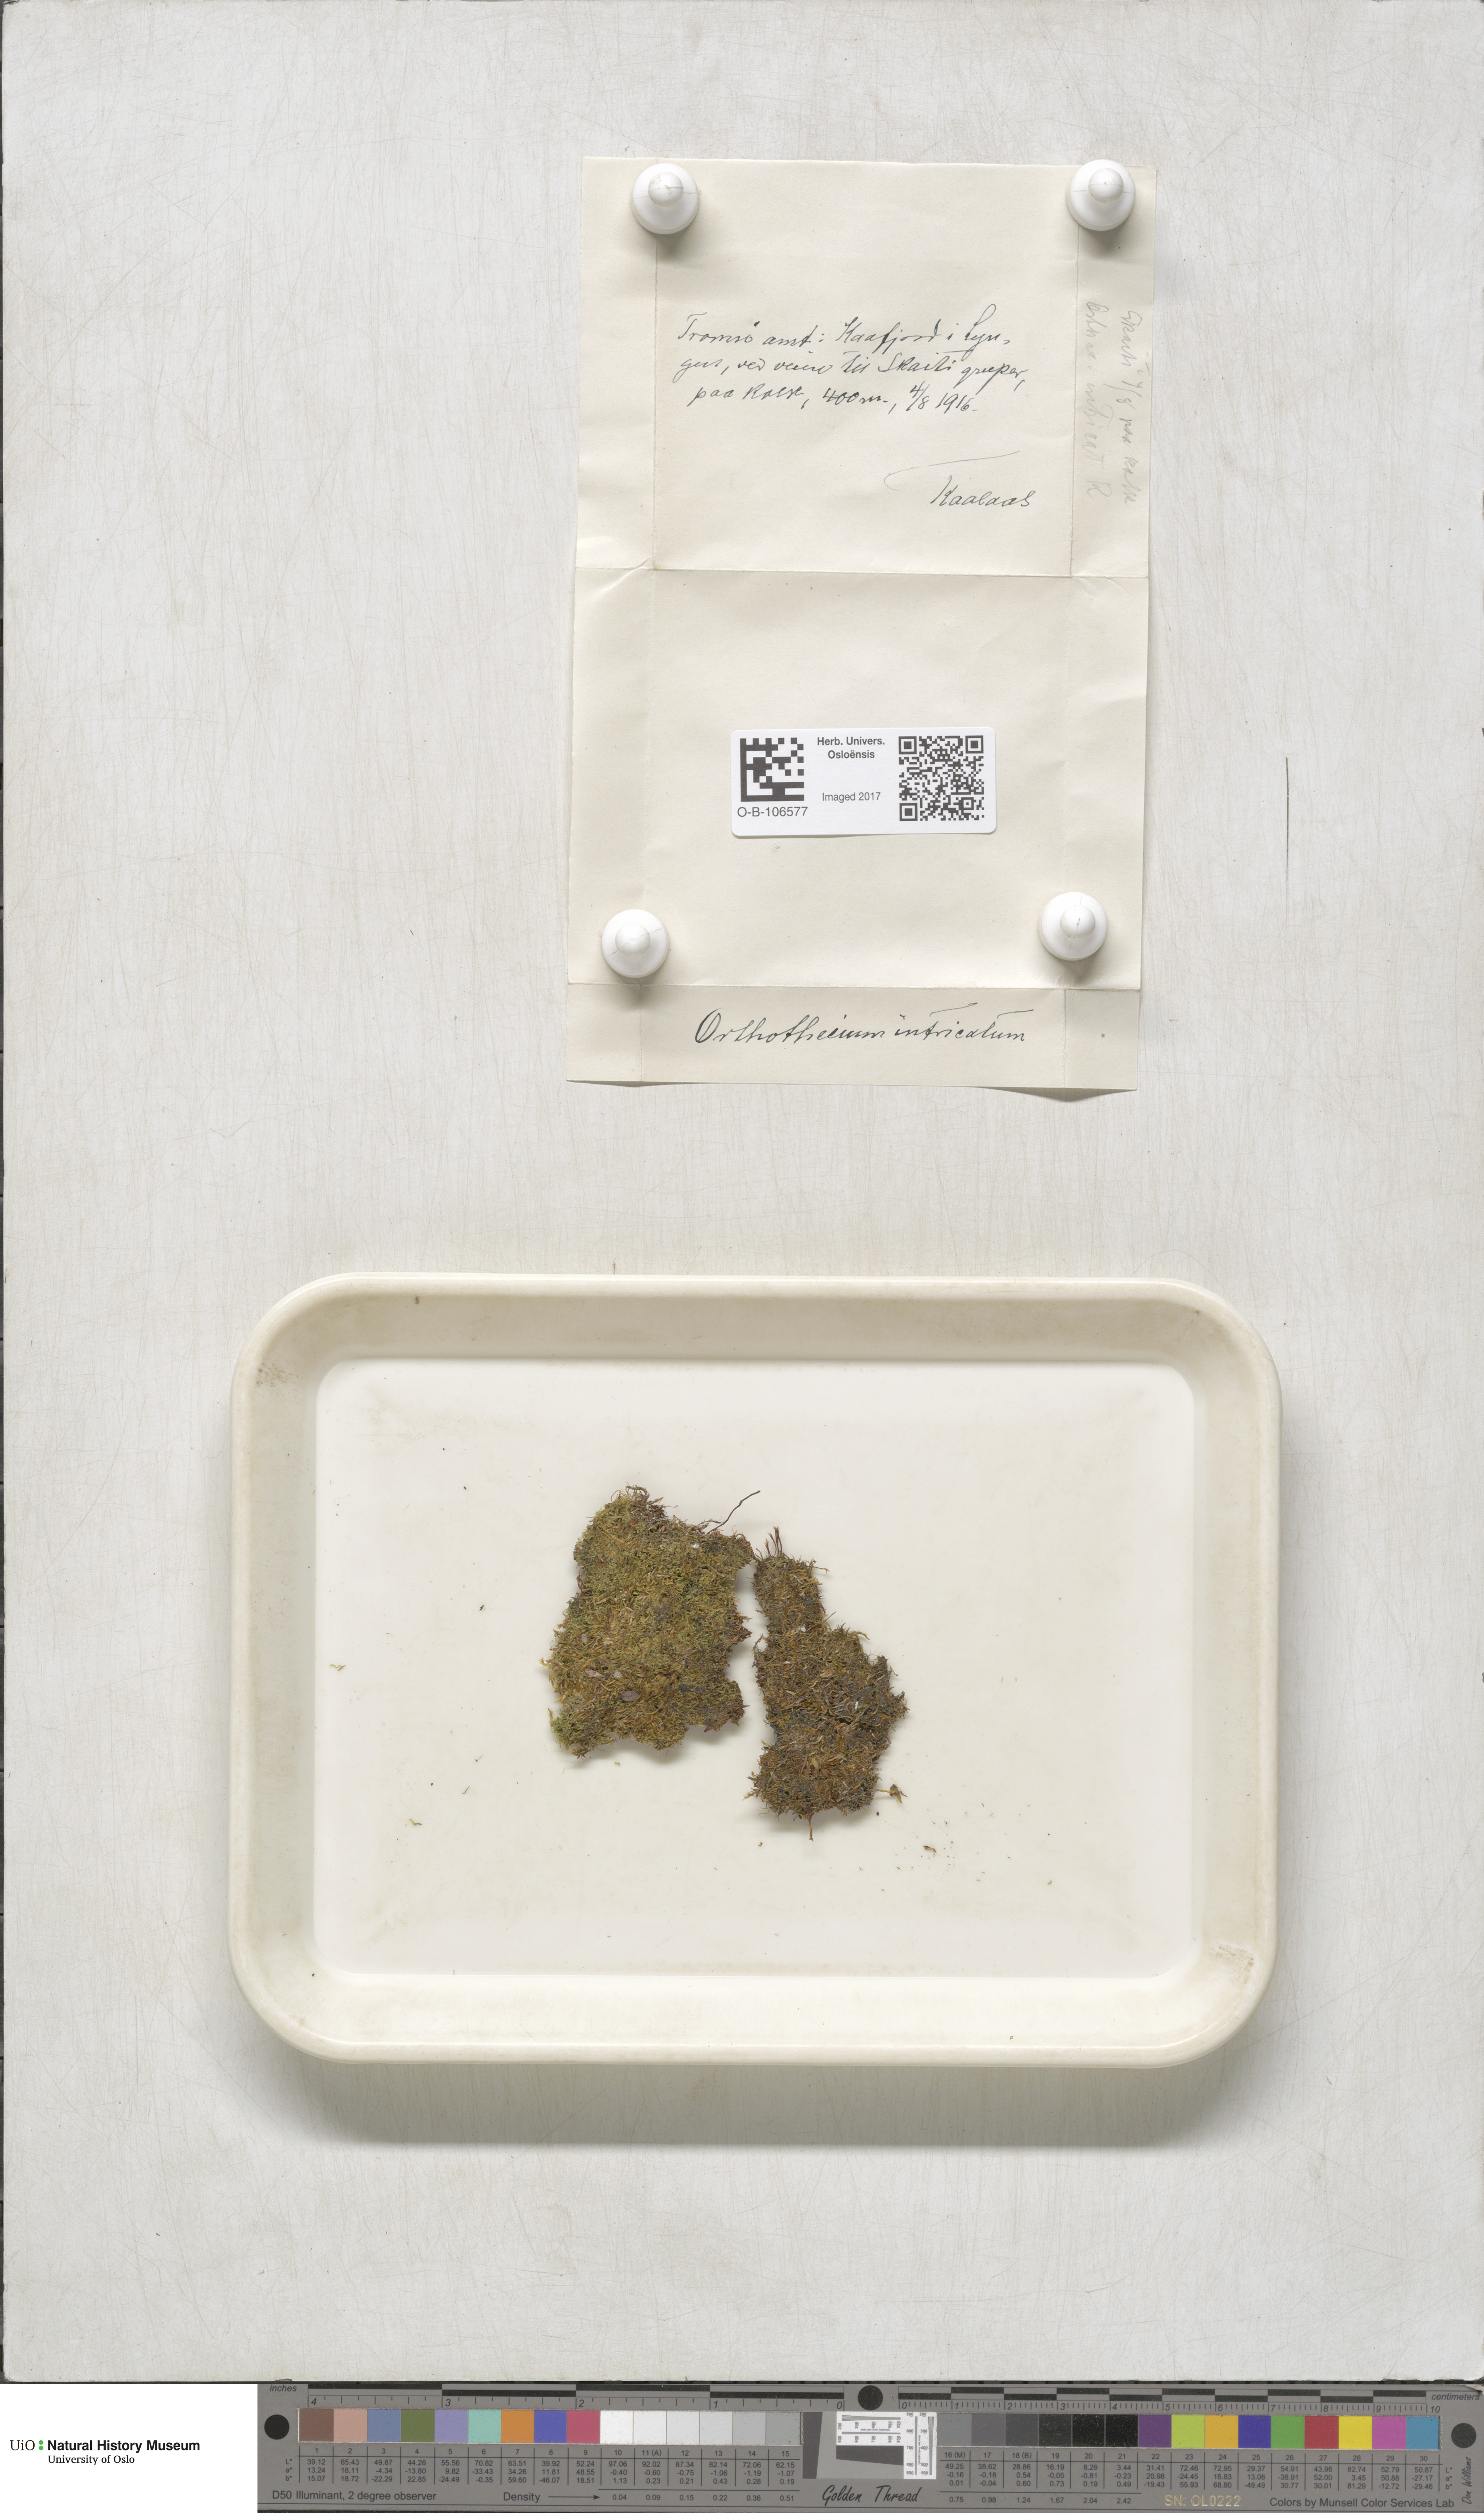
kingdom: Plantae
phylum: Bryophyta
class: Bryopsida
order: Hypnales
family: Plagiotheciaceae
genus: Orthothecium
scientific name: Orthothecium intricatum
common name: Fine-leaved erect-capsule moss
